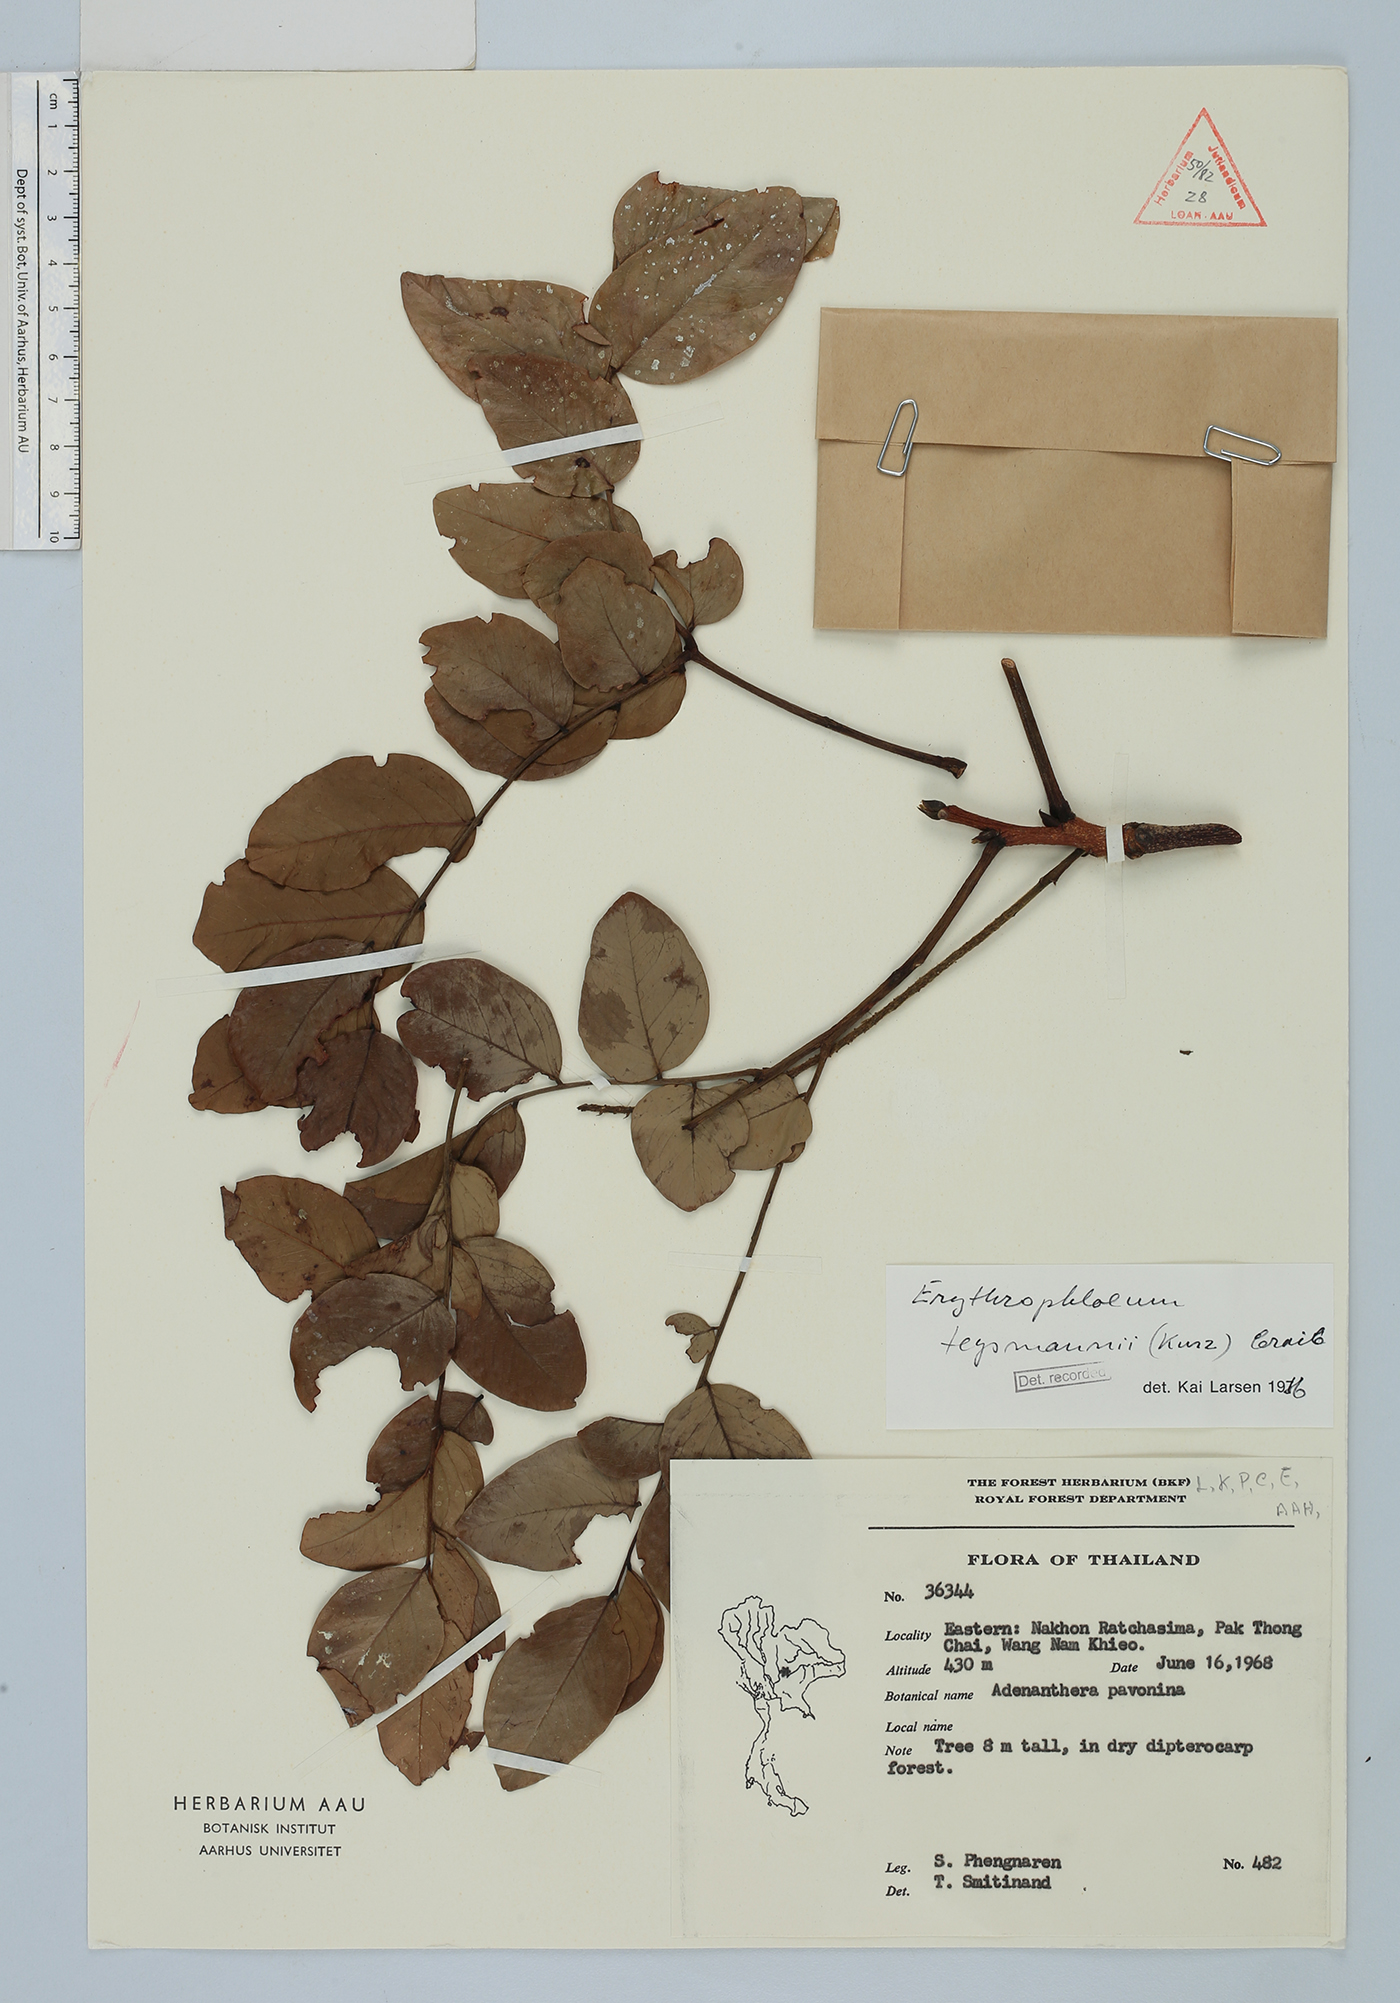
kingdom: Plantae
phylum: Tracheophyta
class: Magnoliopsida
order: Fabales
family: Fabaceae
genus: Erythrophleum
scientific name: Erythrophleum teysmannii
